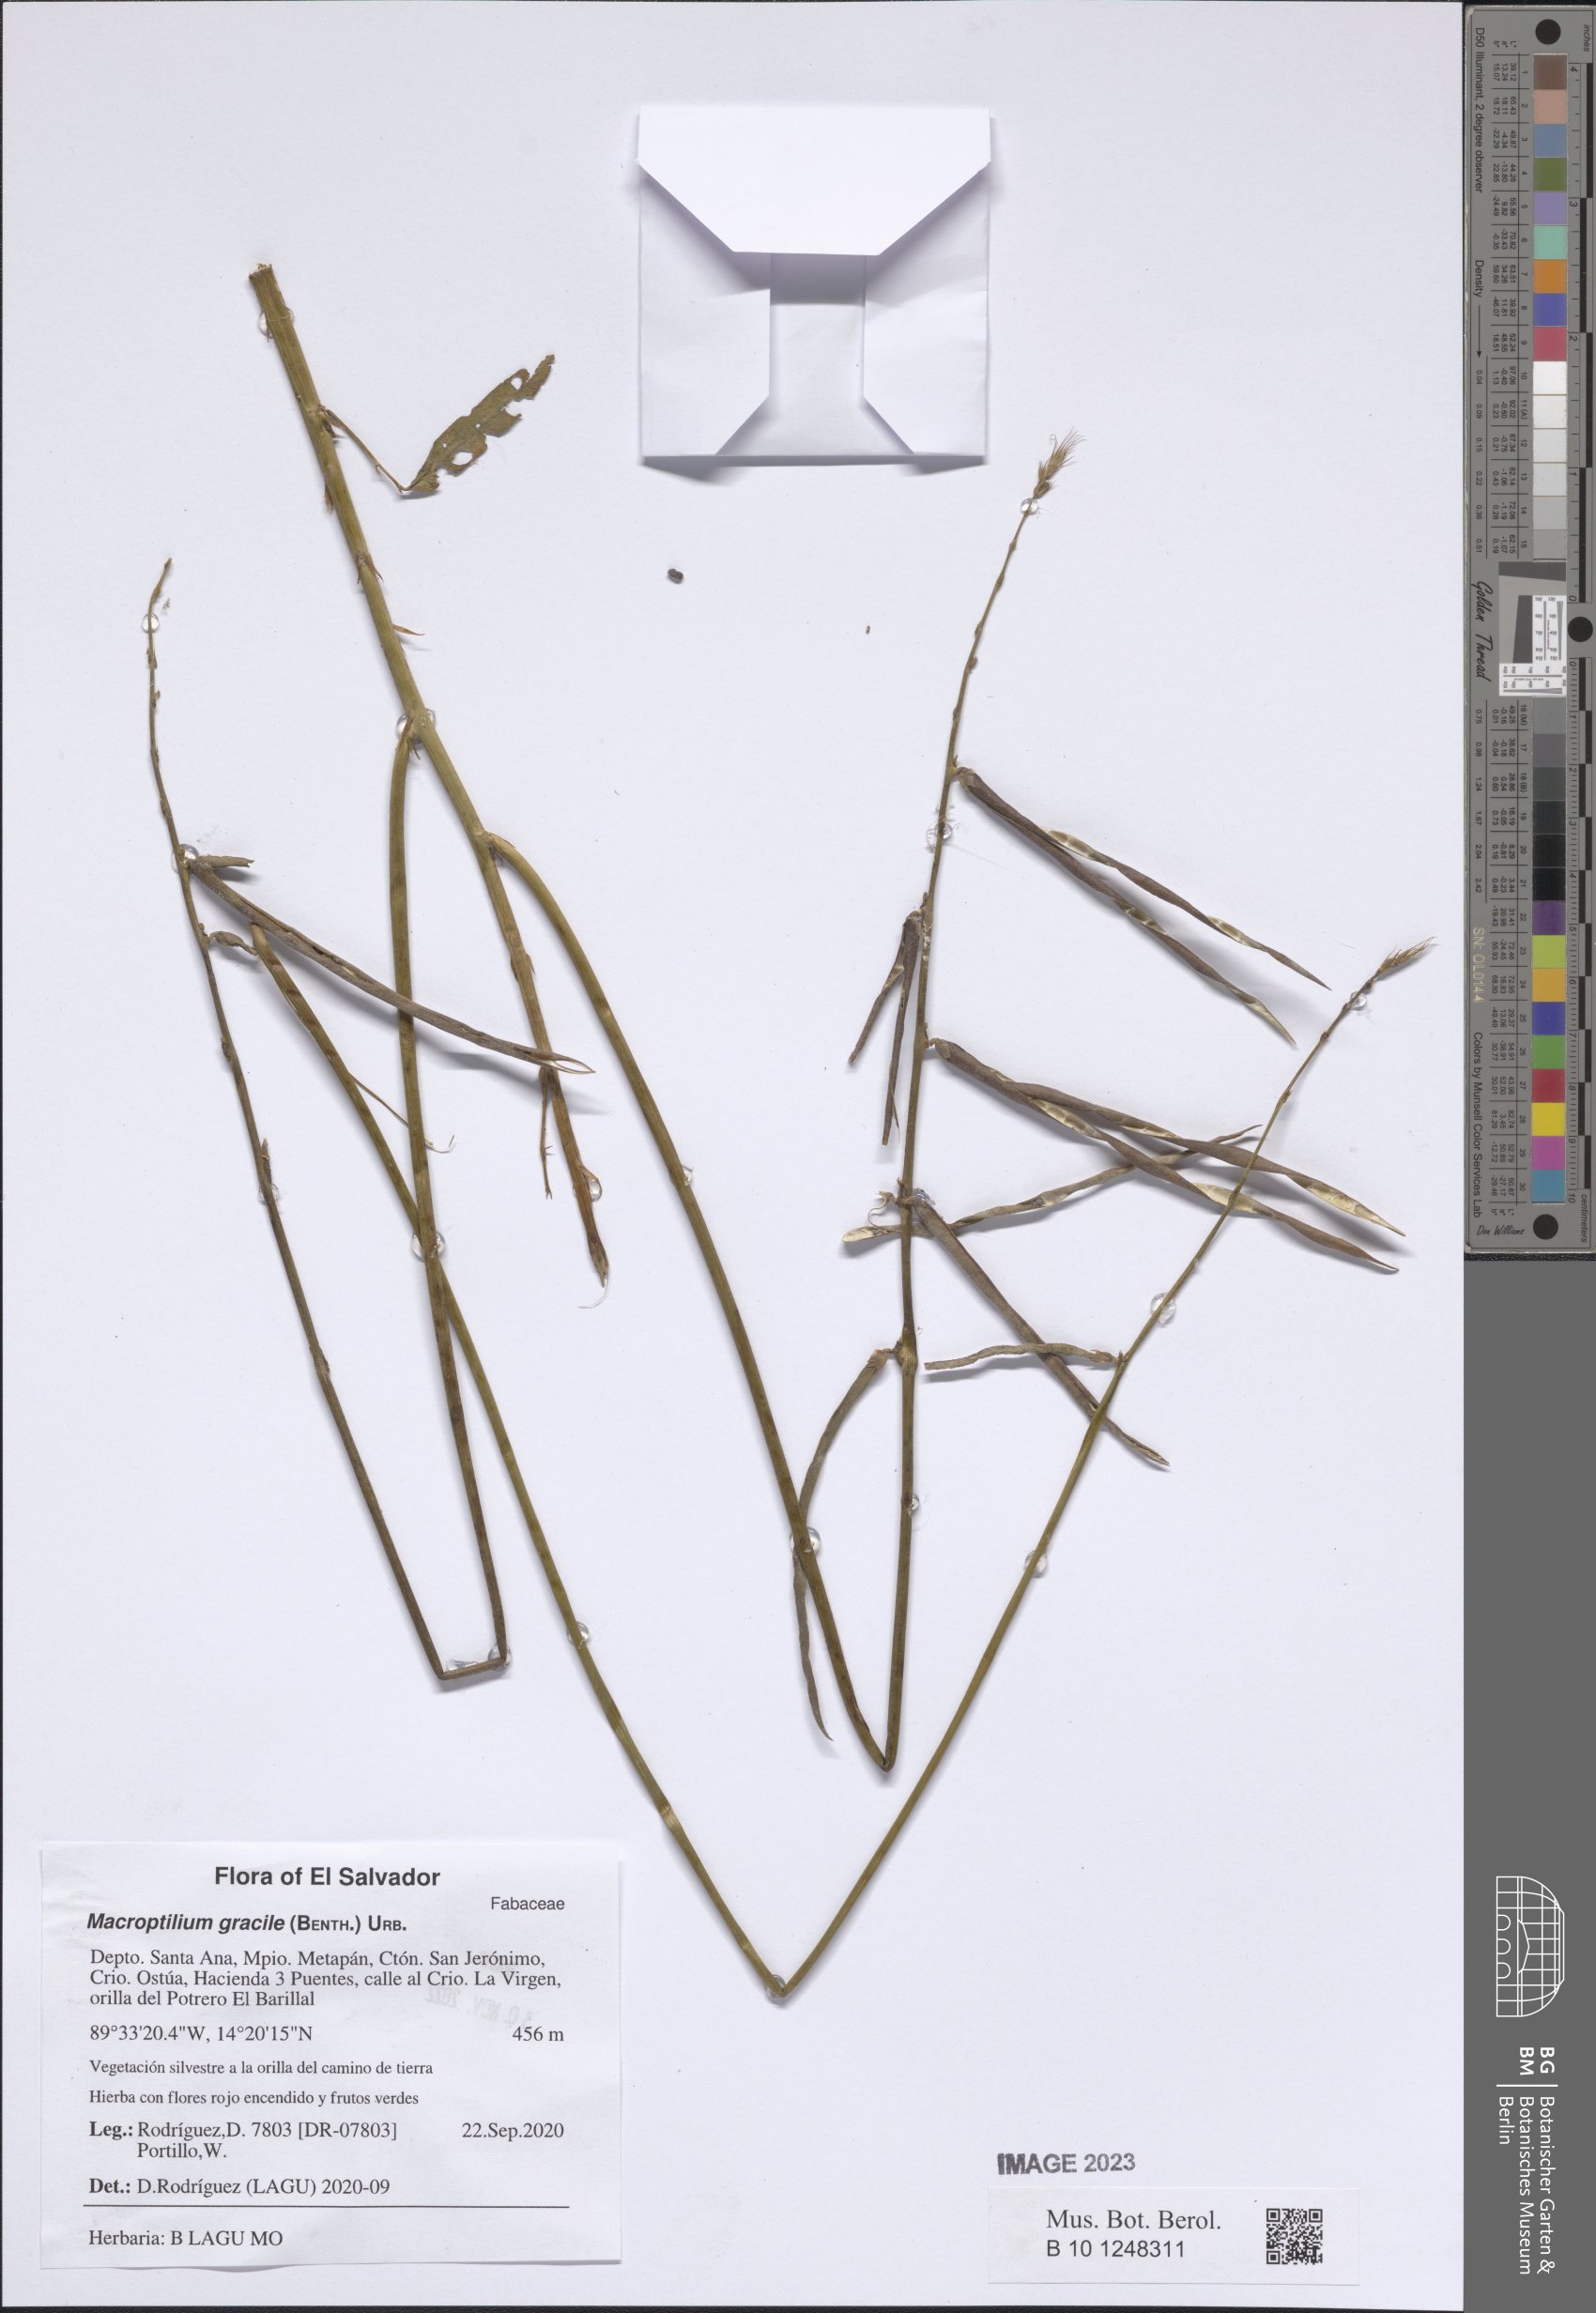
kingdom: Plantae
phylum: Tracheophyta
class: Magnoliopsida
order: Fabales
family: Fabaceae
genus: Macroptilium
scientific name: Macroptilium gracile
